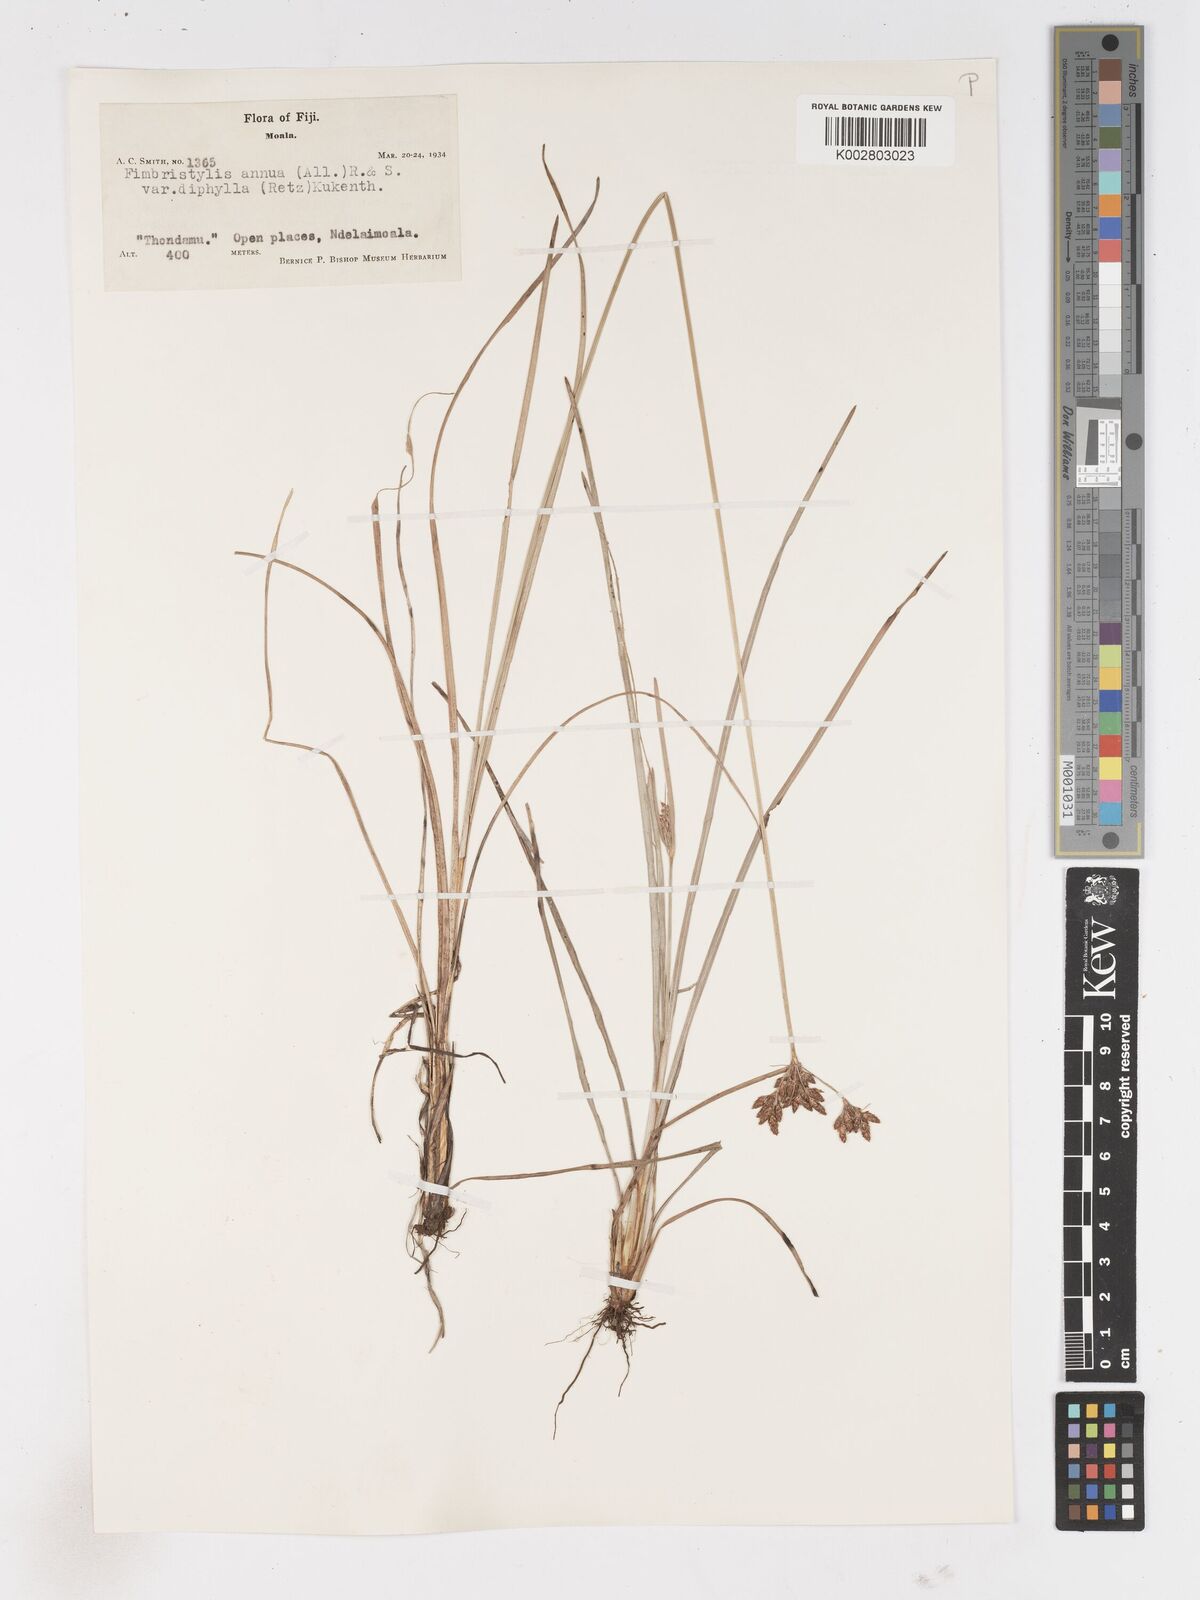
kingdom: Plantae
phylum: Tracheophyta
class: Liliopsida
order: Poales
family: Cyperaceae
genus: Fimbristylis
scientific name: Fimbristylis dichotoma
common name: Forked fimbry
